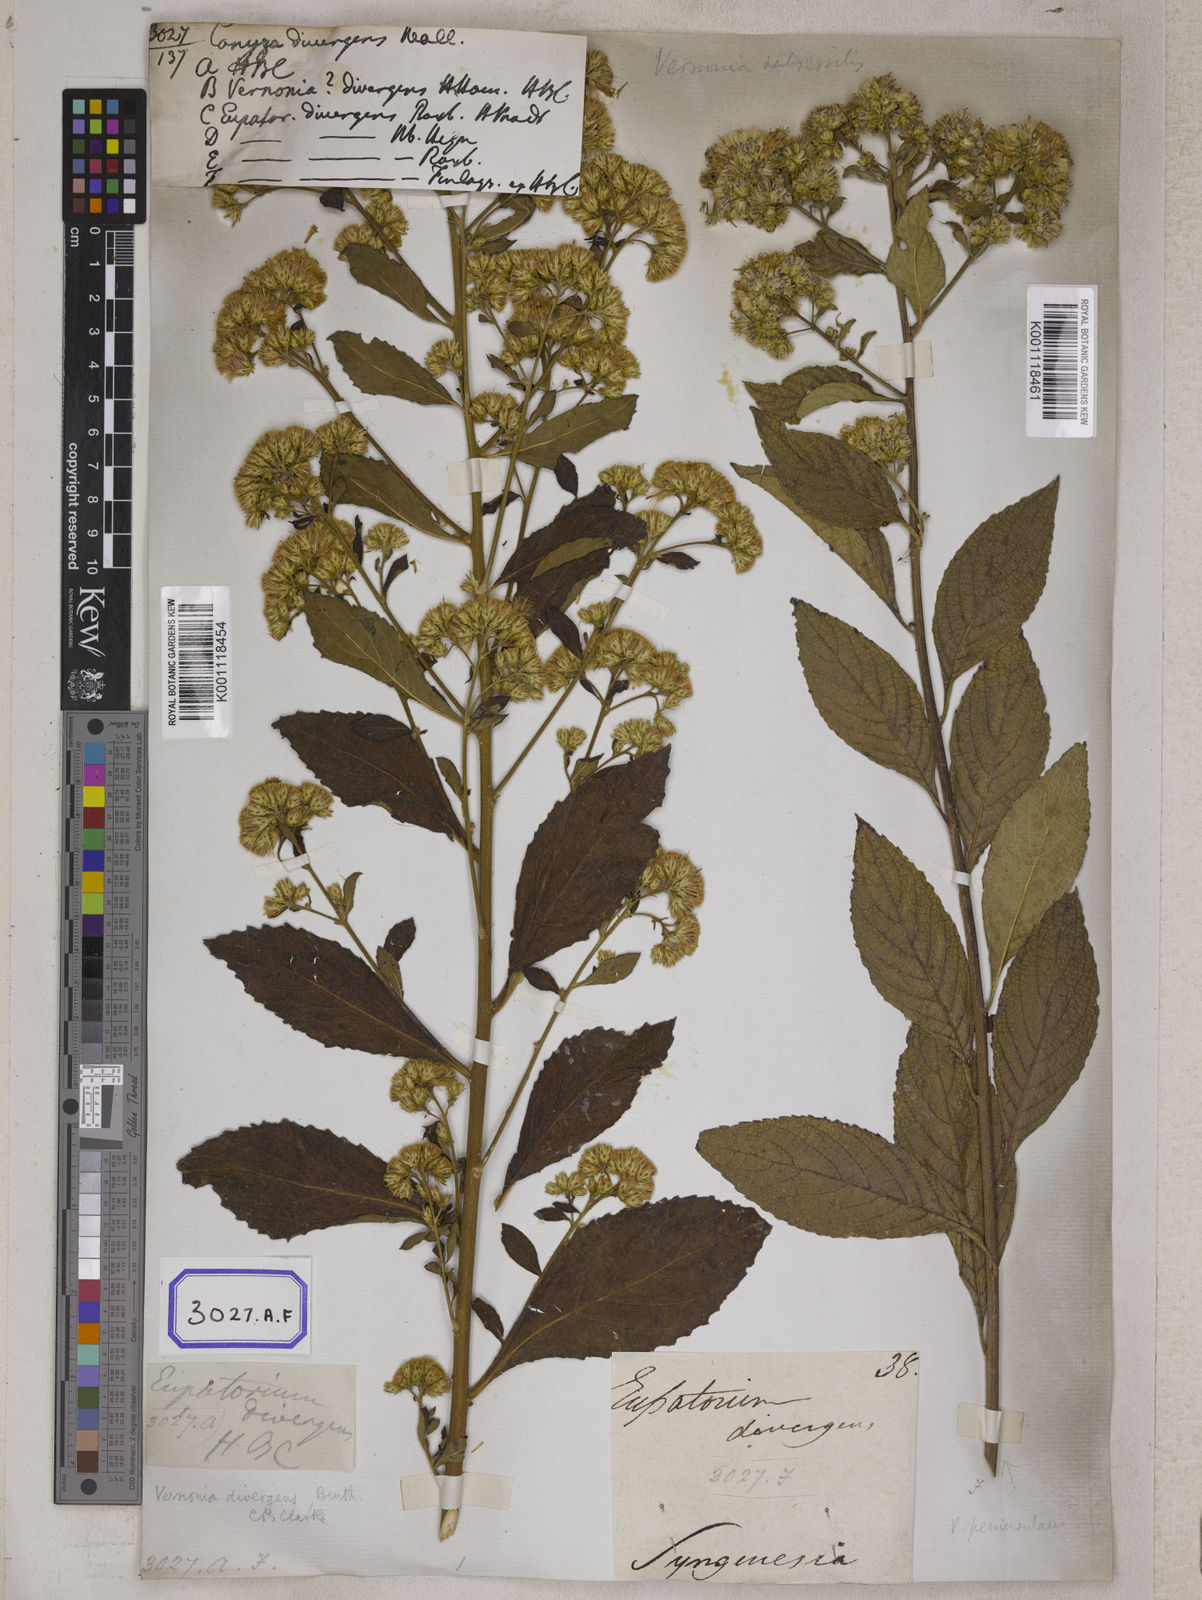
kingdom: Plantae
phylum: Tracheophyta
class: Magnoliopsida
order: Asterales
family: Asteraceae
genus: Acilepis
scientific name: Acilepis divergens
